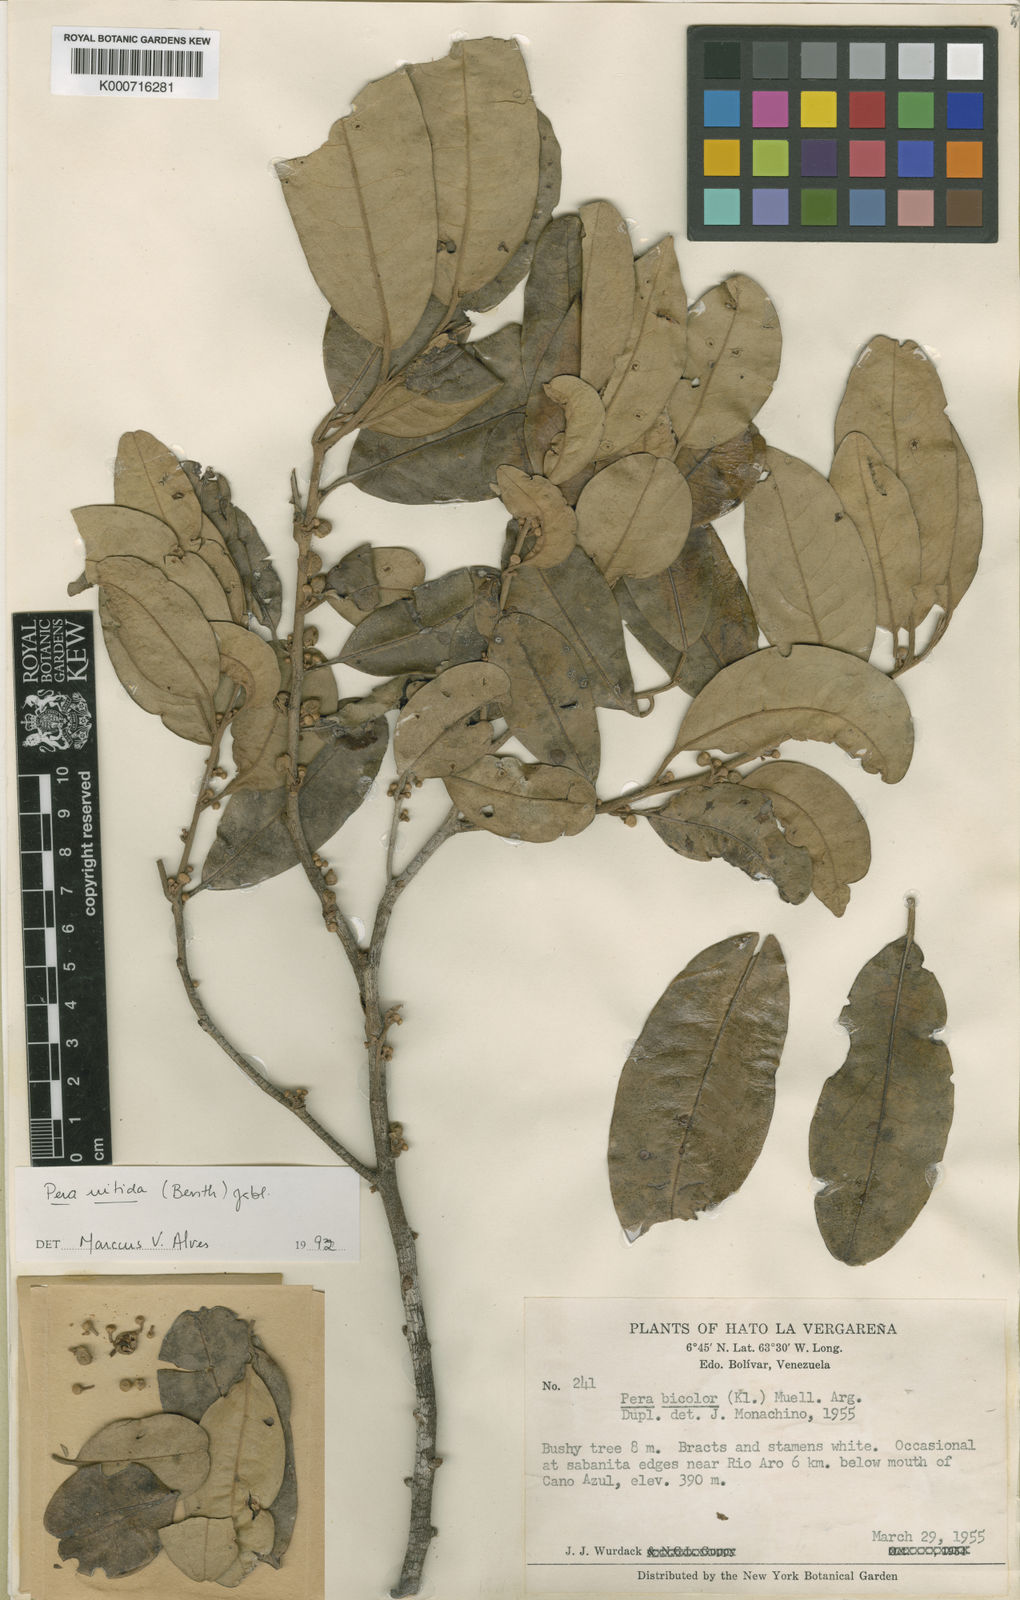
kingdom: Plantae
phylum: Tracheophyta
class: Magnoliopsida
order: Malpighiales
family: Peraceae
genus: Pera
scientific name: Pera decipiens
